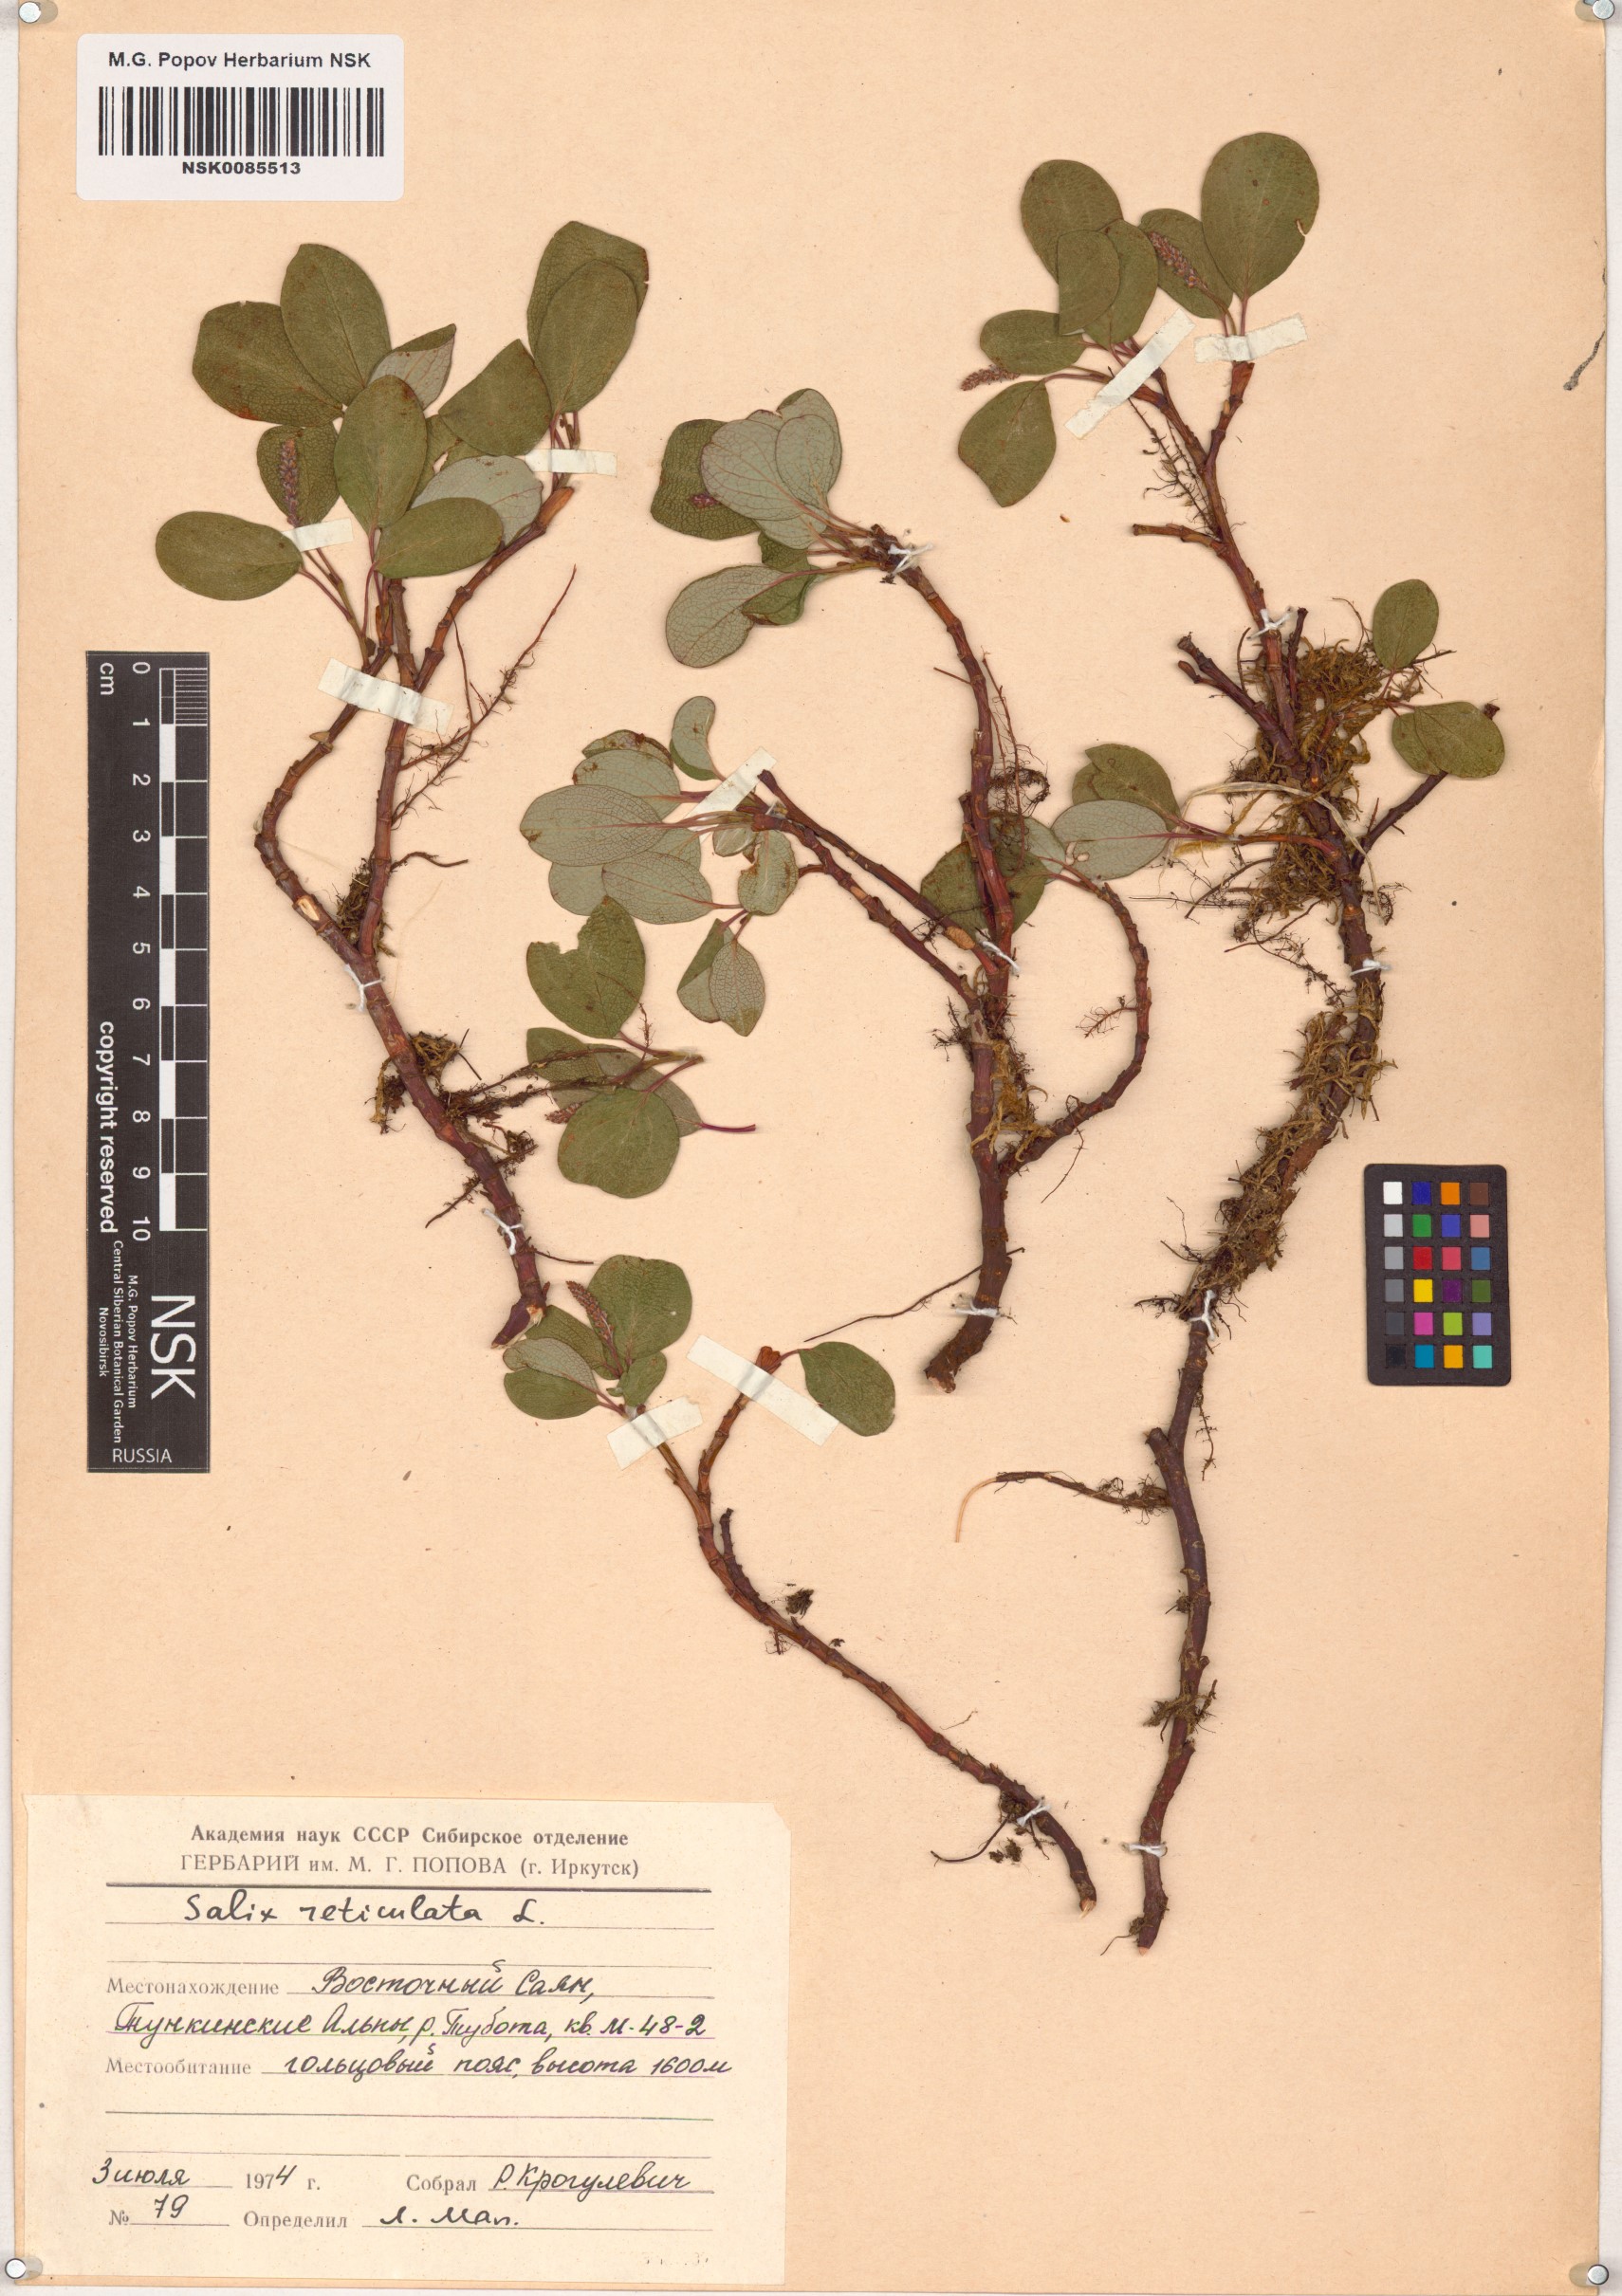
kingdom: Plantae
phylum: Tracheophyta
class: Magnoliopsida
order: Malpighiales
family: Salicaceae
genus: Salix
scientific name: Salix reticulata
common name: Net-leaved willow
